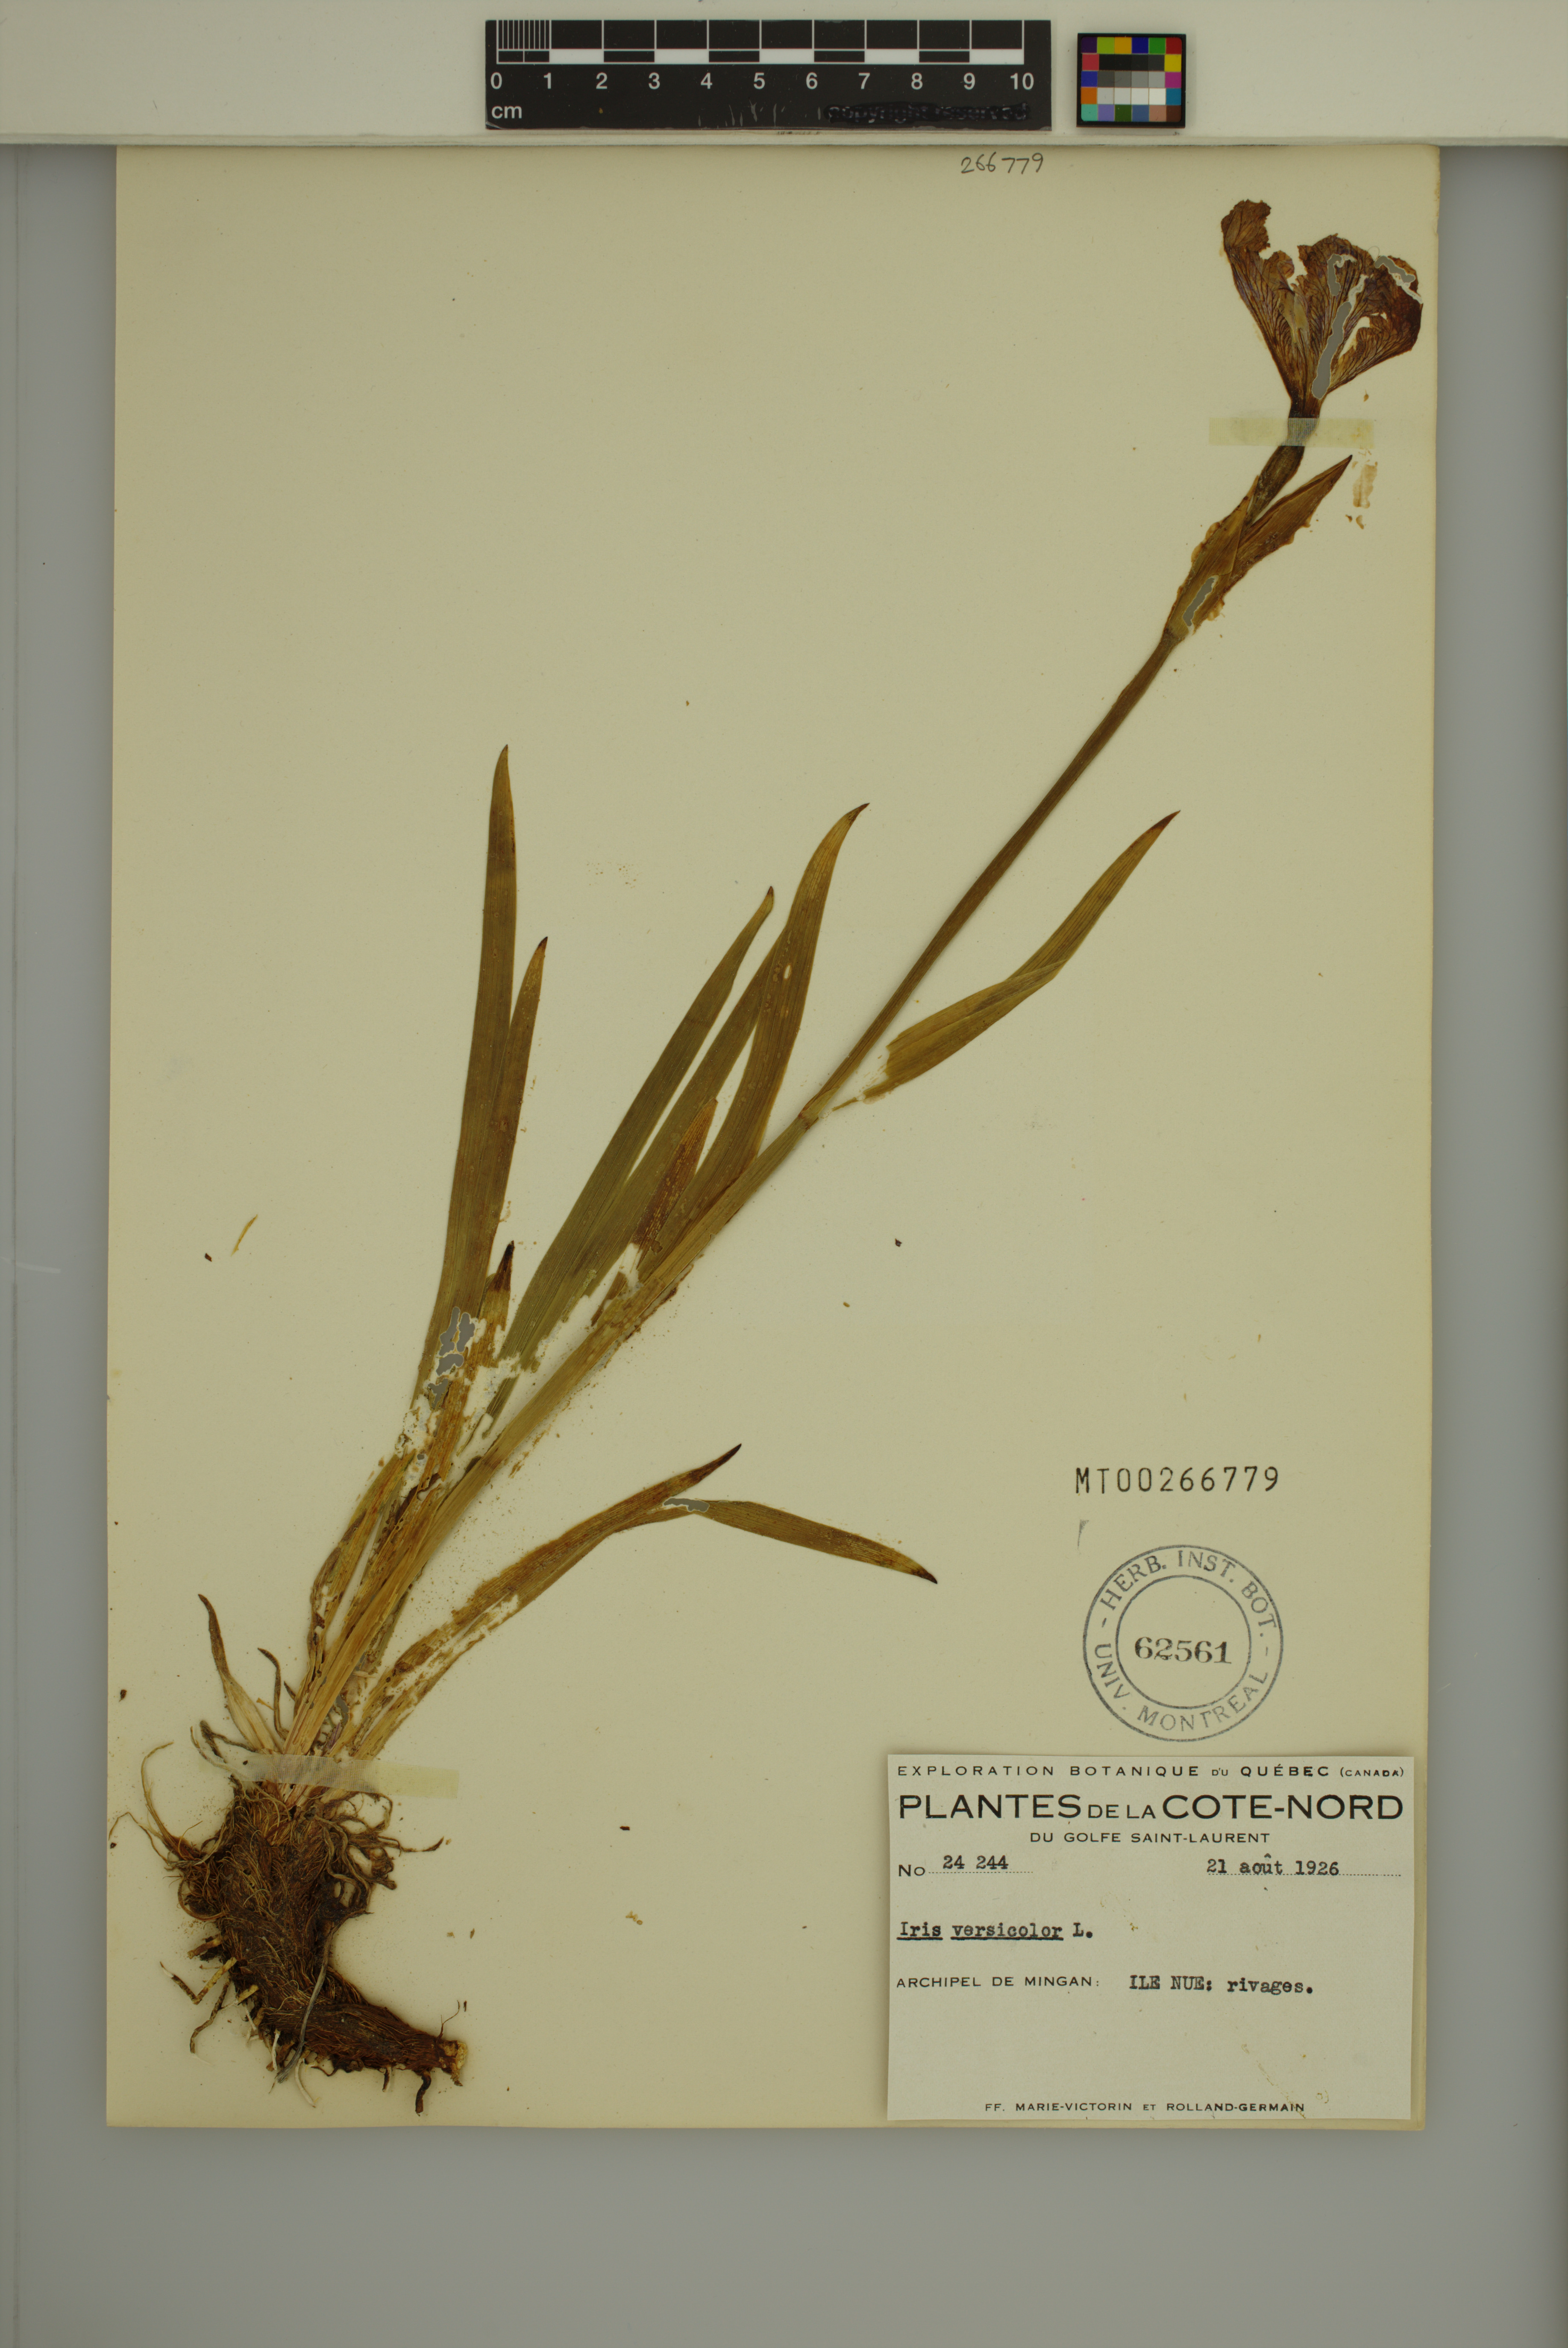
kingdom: Plantae
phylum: Tracheophyta
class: Liliopsida
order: Asparagales
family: Iridaceae
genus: Iris
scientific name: Iris versicolor
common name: Purple iris
